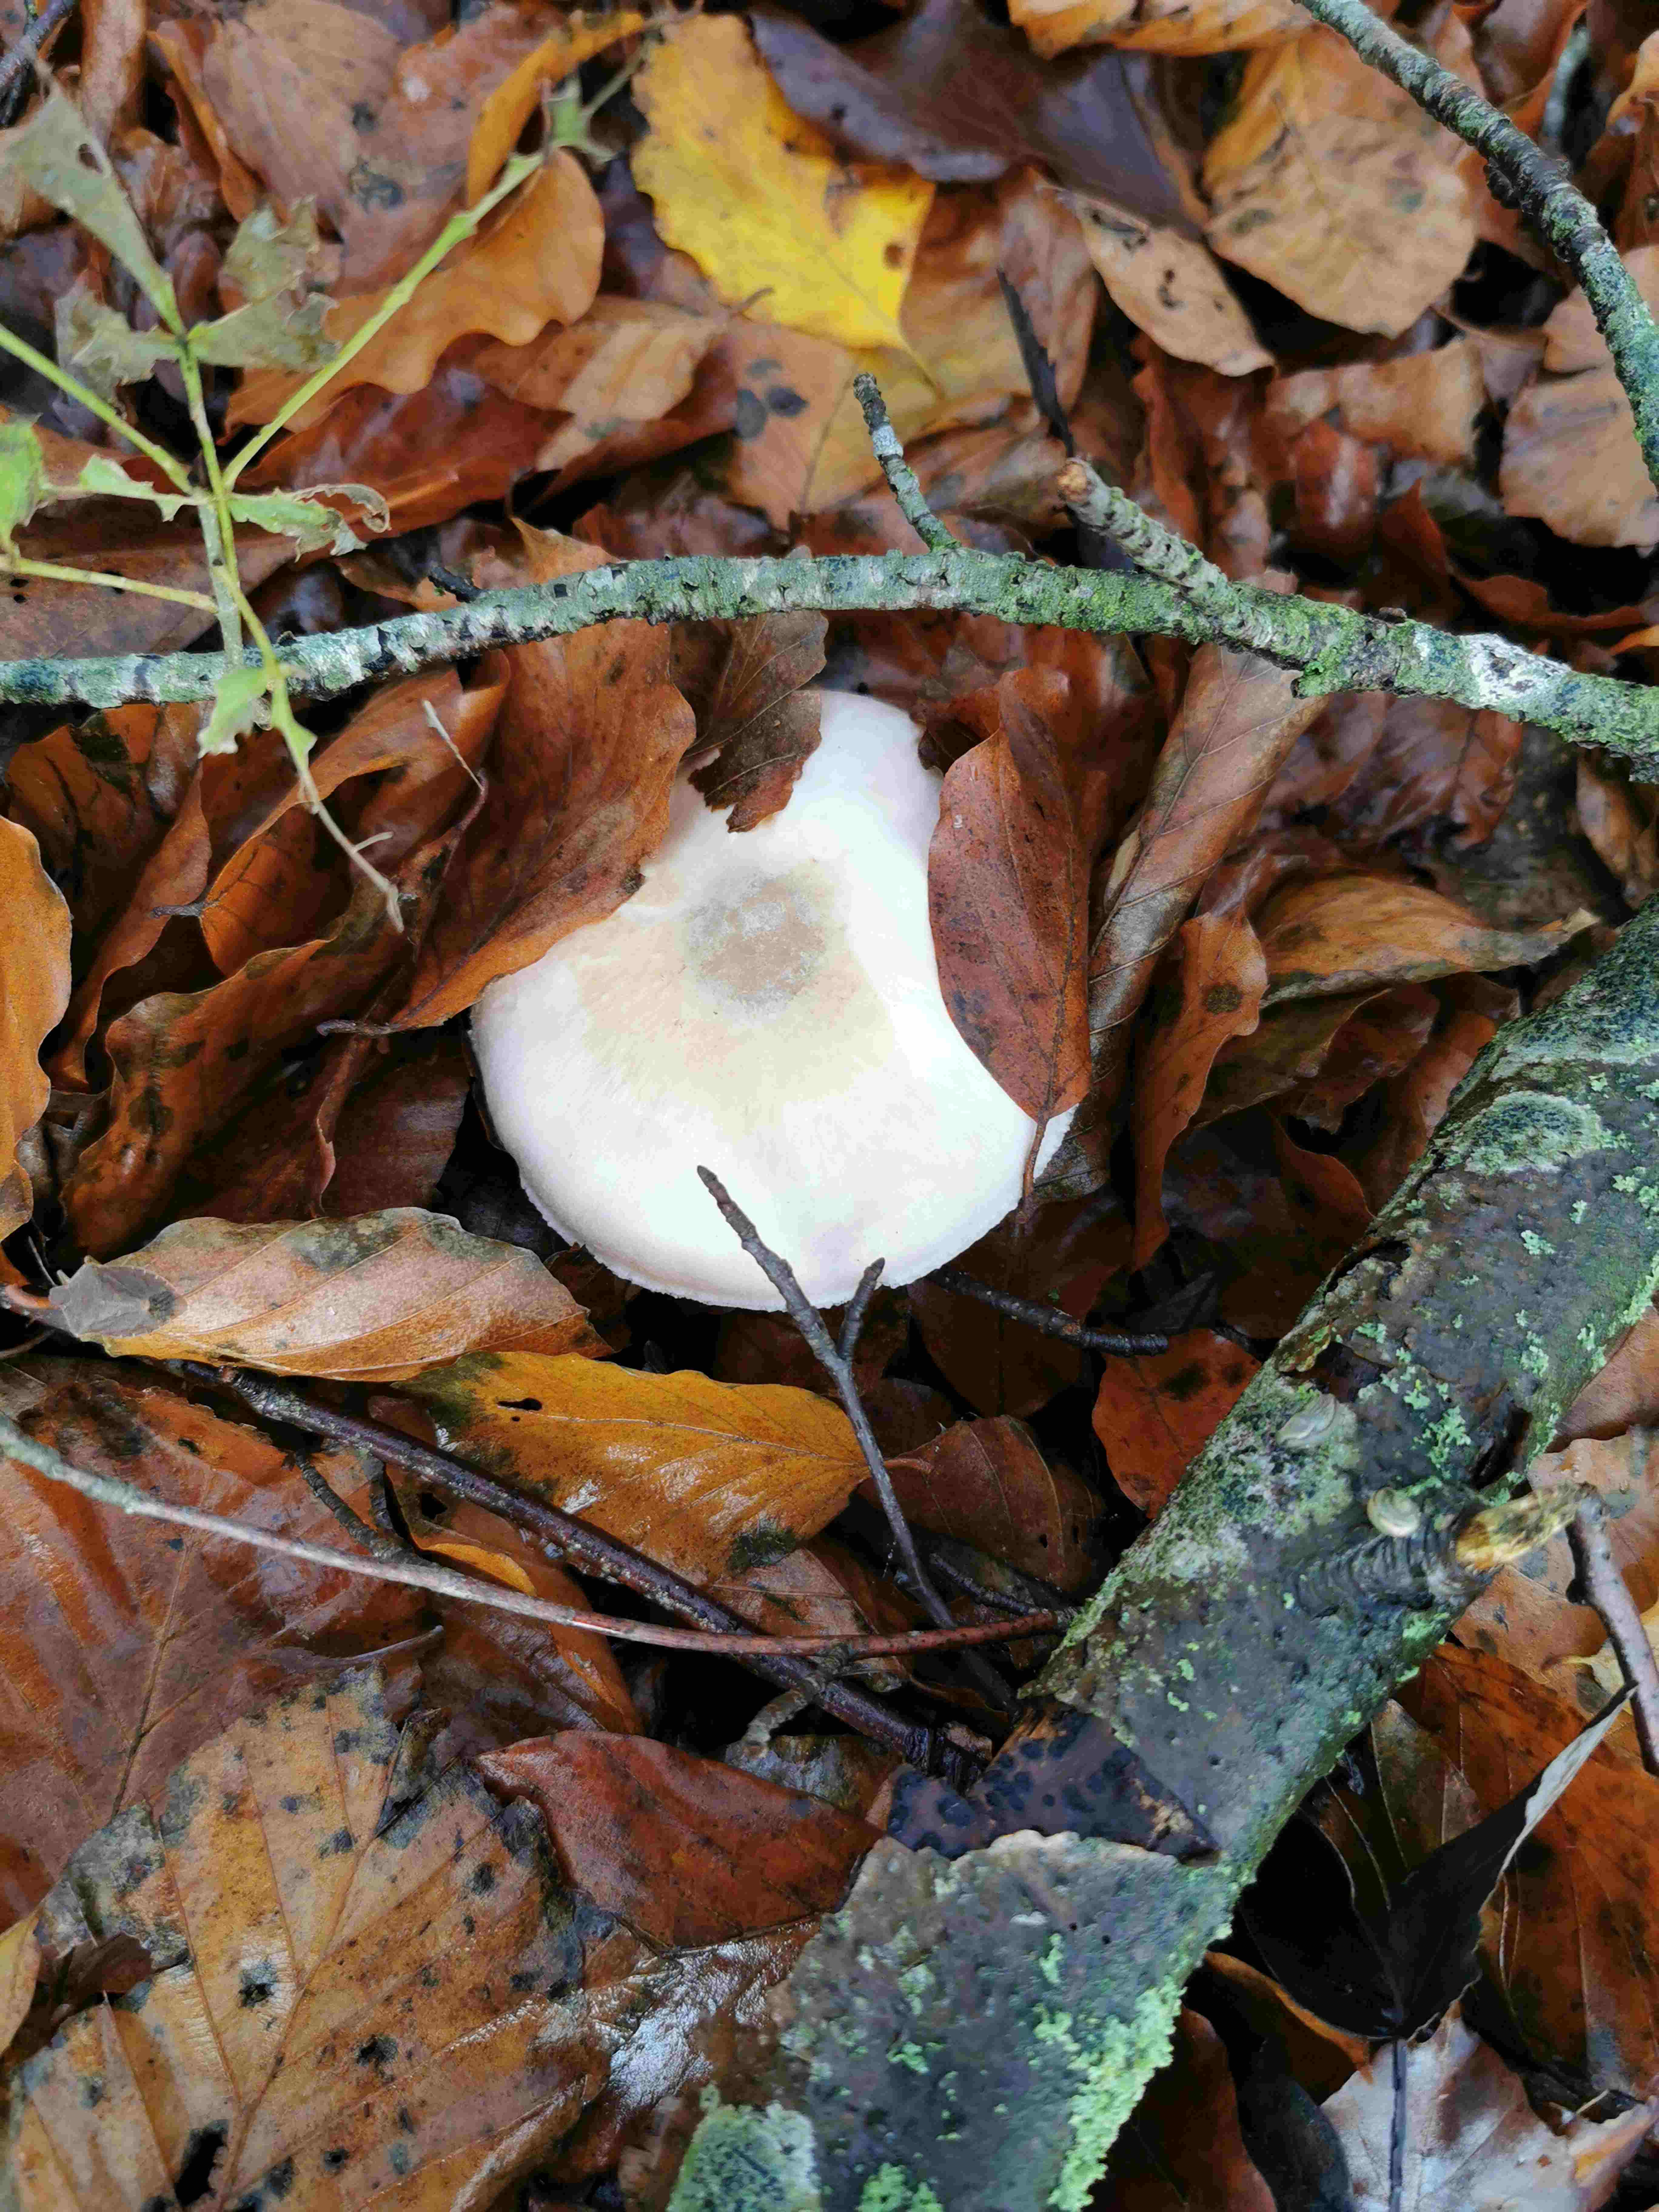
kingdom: Fungi
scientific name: Fungi
